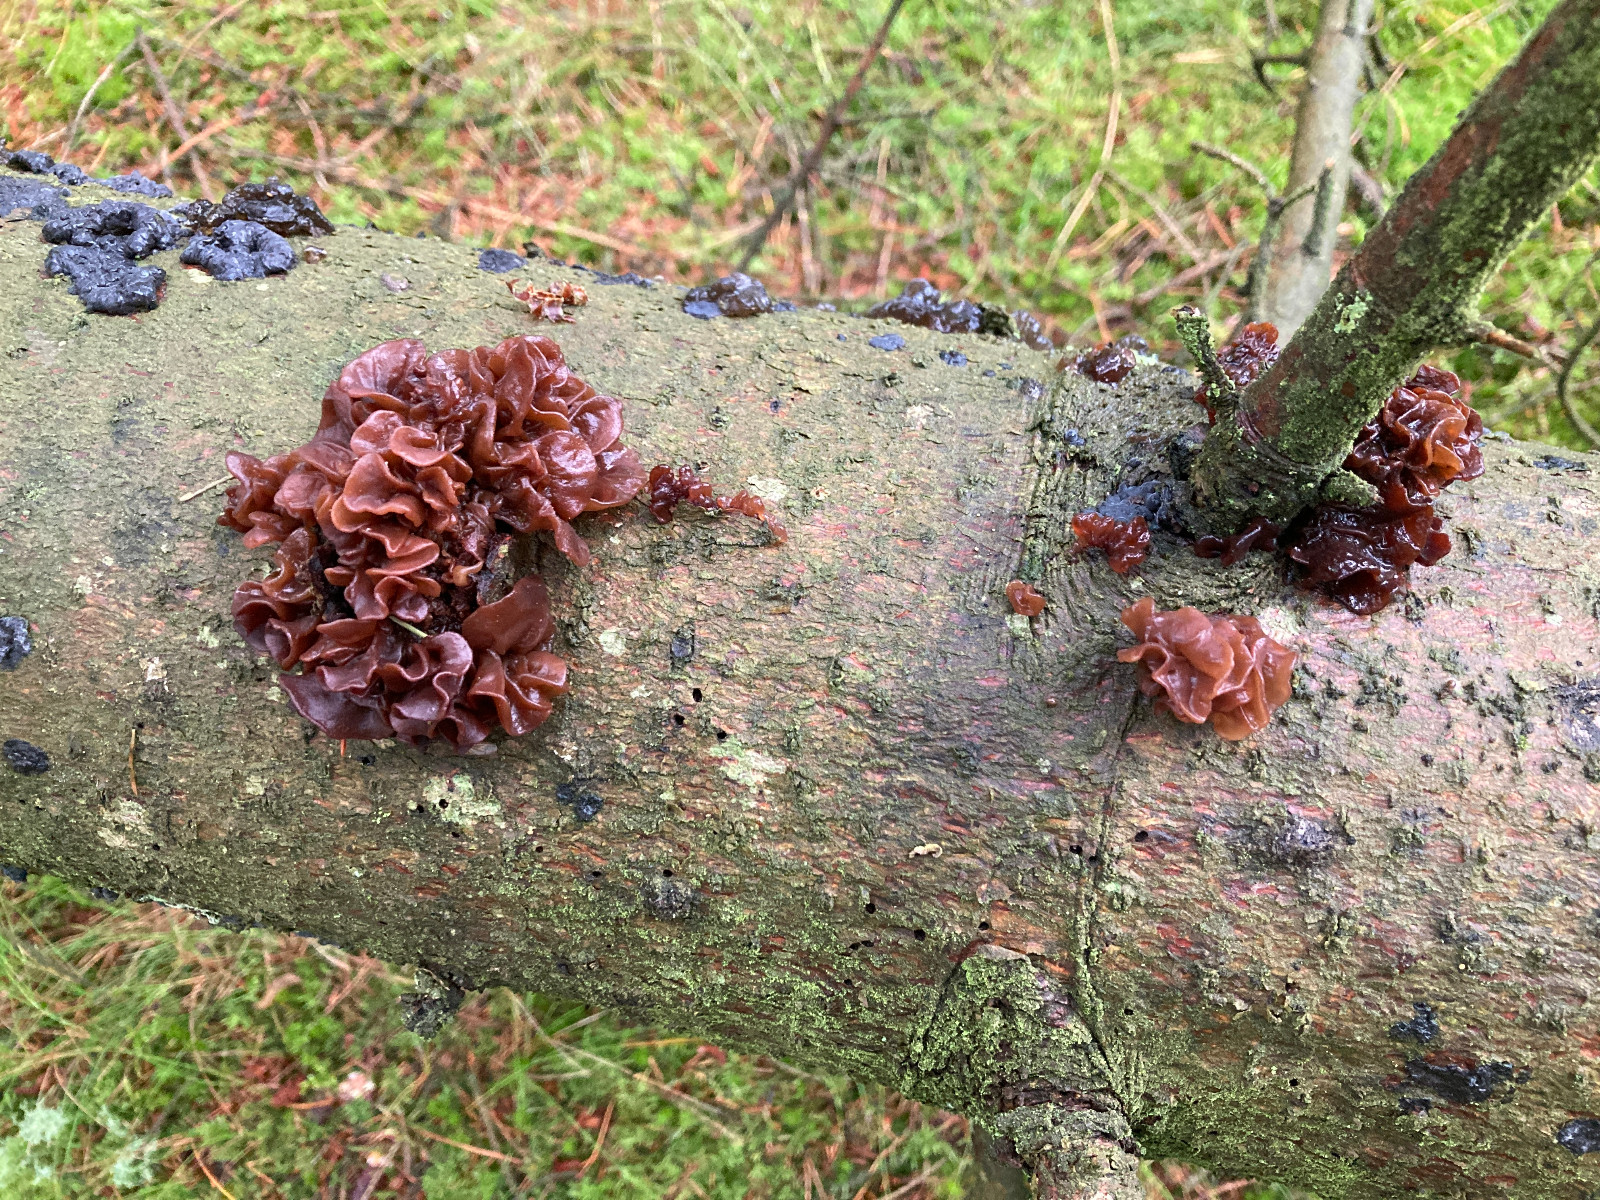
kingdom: Fungi
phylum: Basidiomycota
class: Tremellomycetes
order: Tremellales
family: Tremellaceae
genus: Phaeotremella
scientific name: Phaeotremella foliacea
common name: brun bævresvamp
